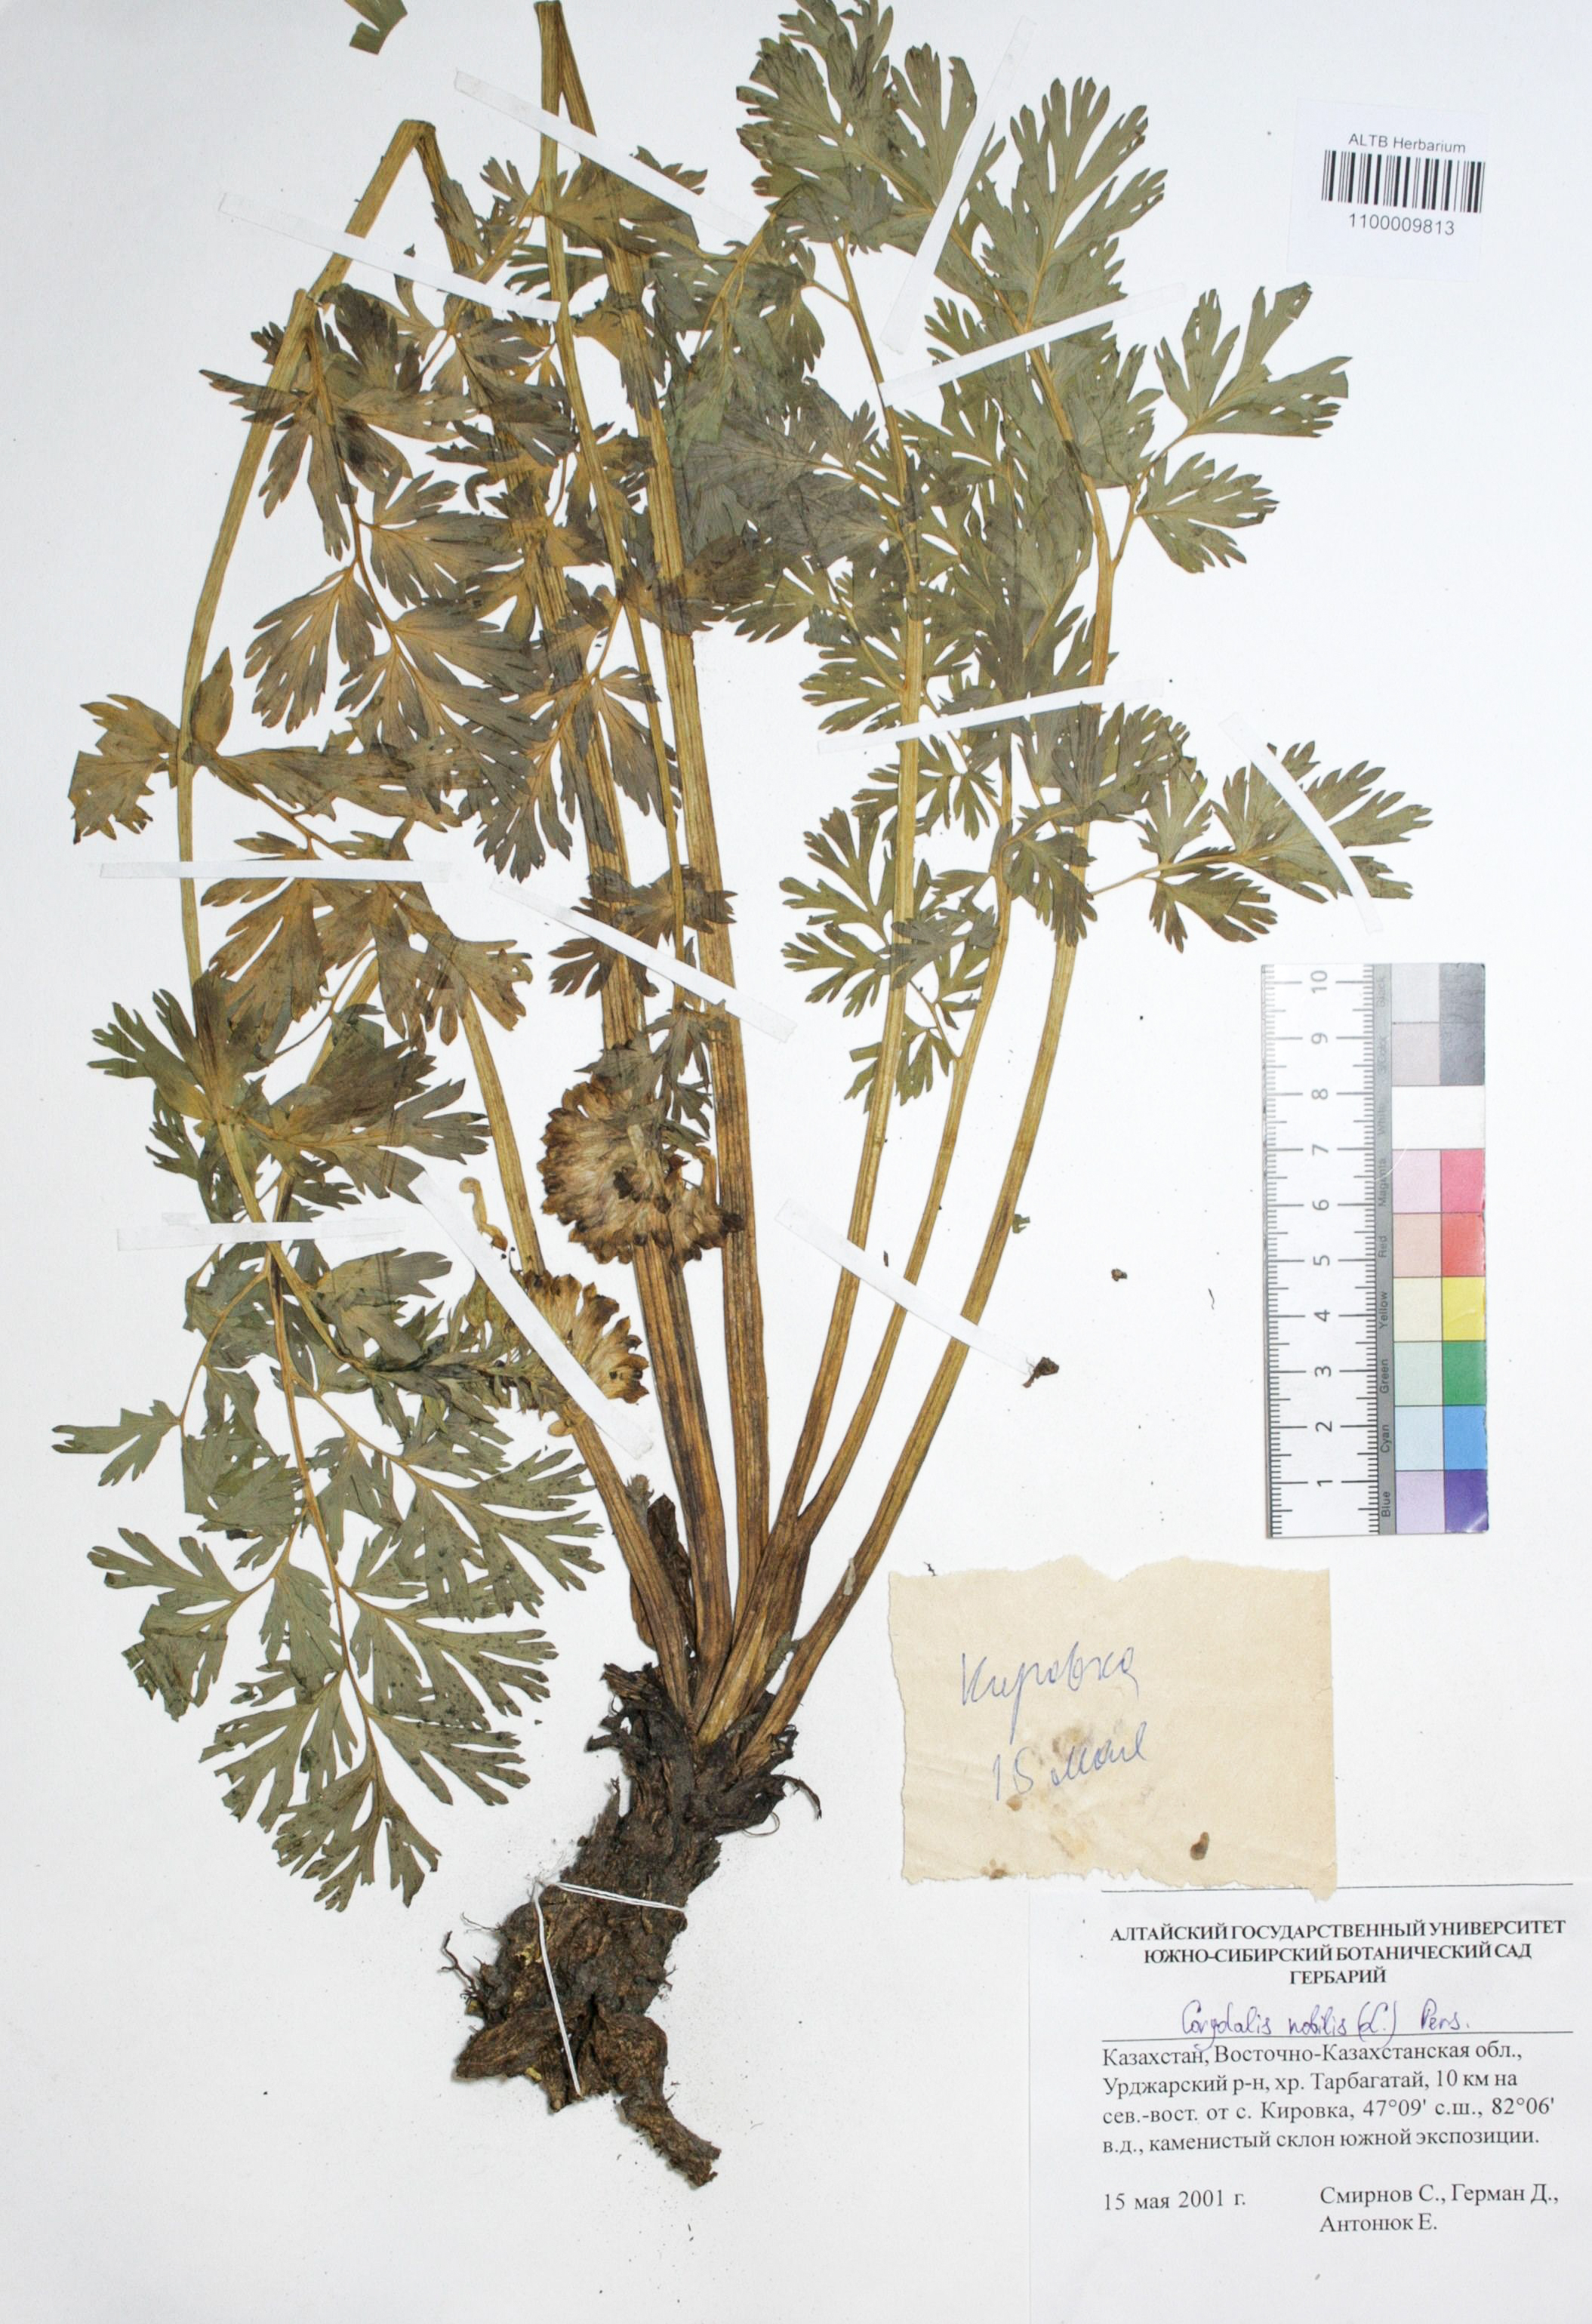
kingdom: Plantae
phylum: Tracheophyta
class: Magnoliopsida
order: Ranunculales
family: Papaveraceae
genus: Corydalis
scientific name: Corydalis nobilis
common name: Siberian corydalis
